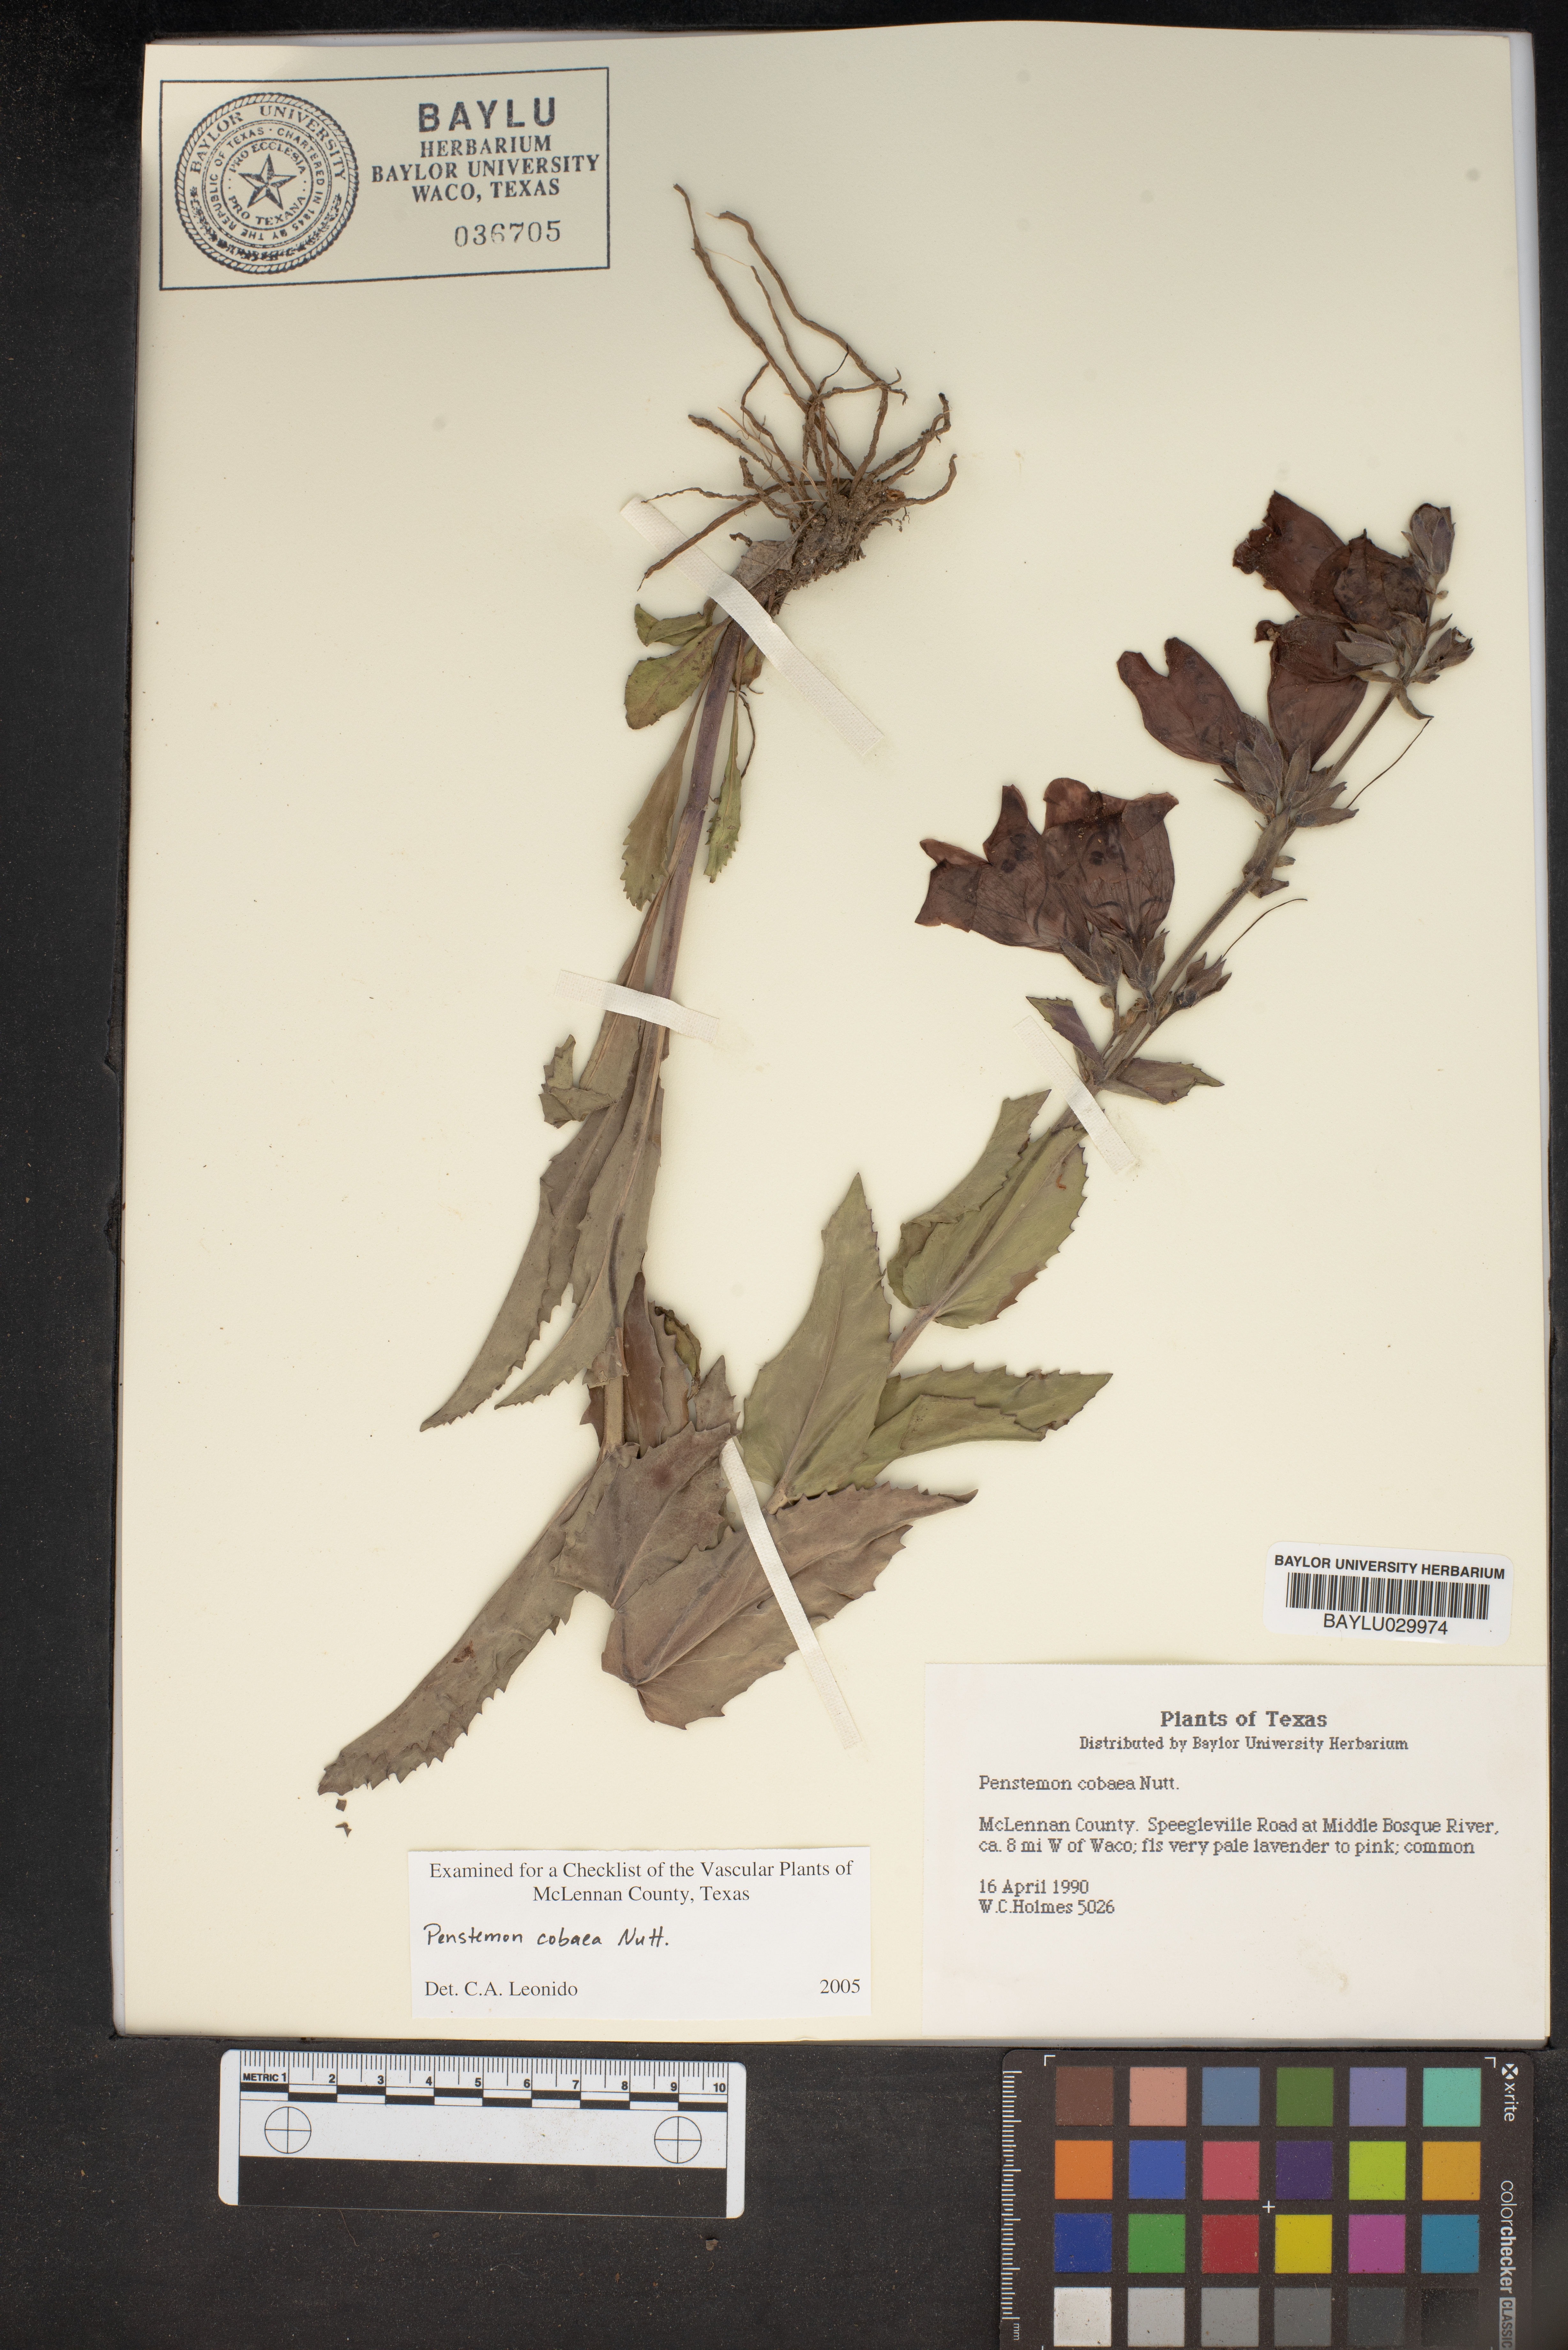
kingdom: Plantae
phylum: Tracheophyta
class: Magnoliopsida
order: Lamiales
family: Plantaginaceae
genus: Penstemon
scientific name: Penstemon cobaea
